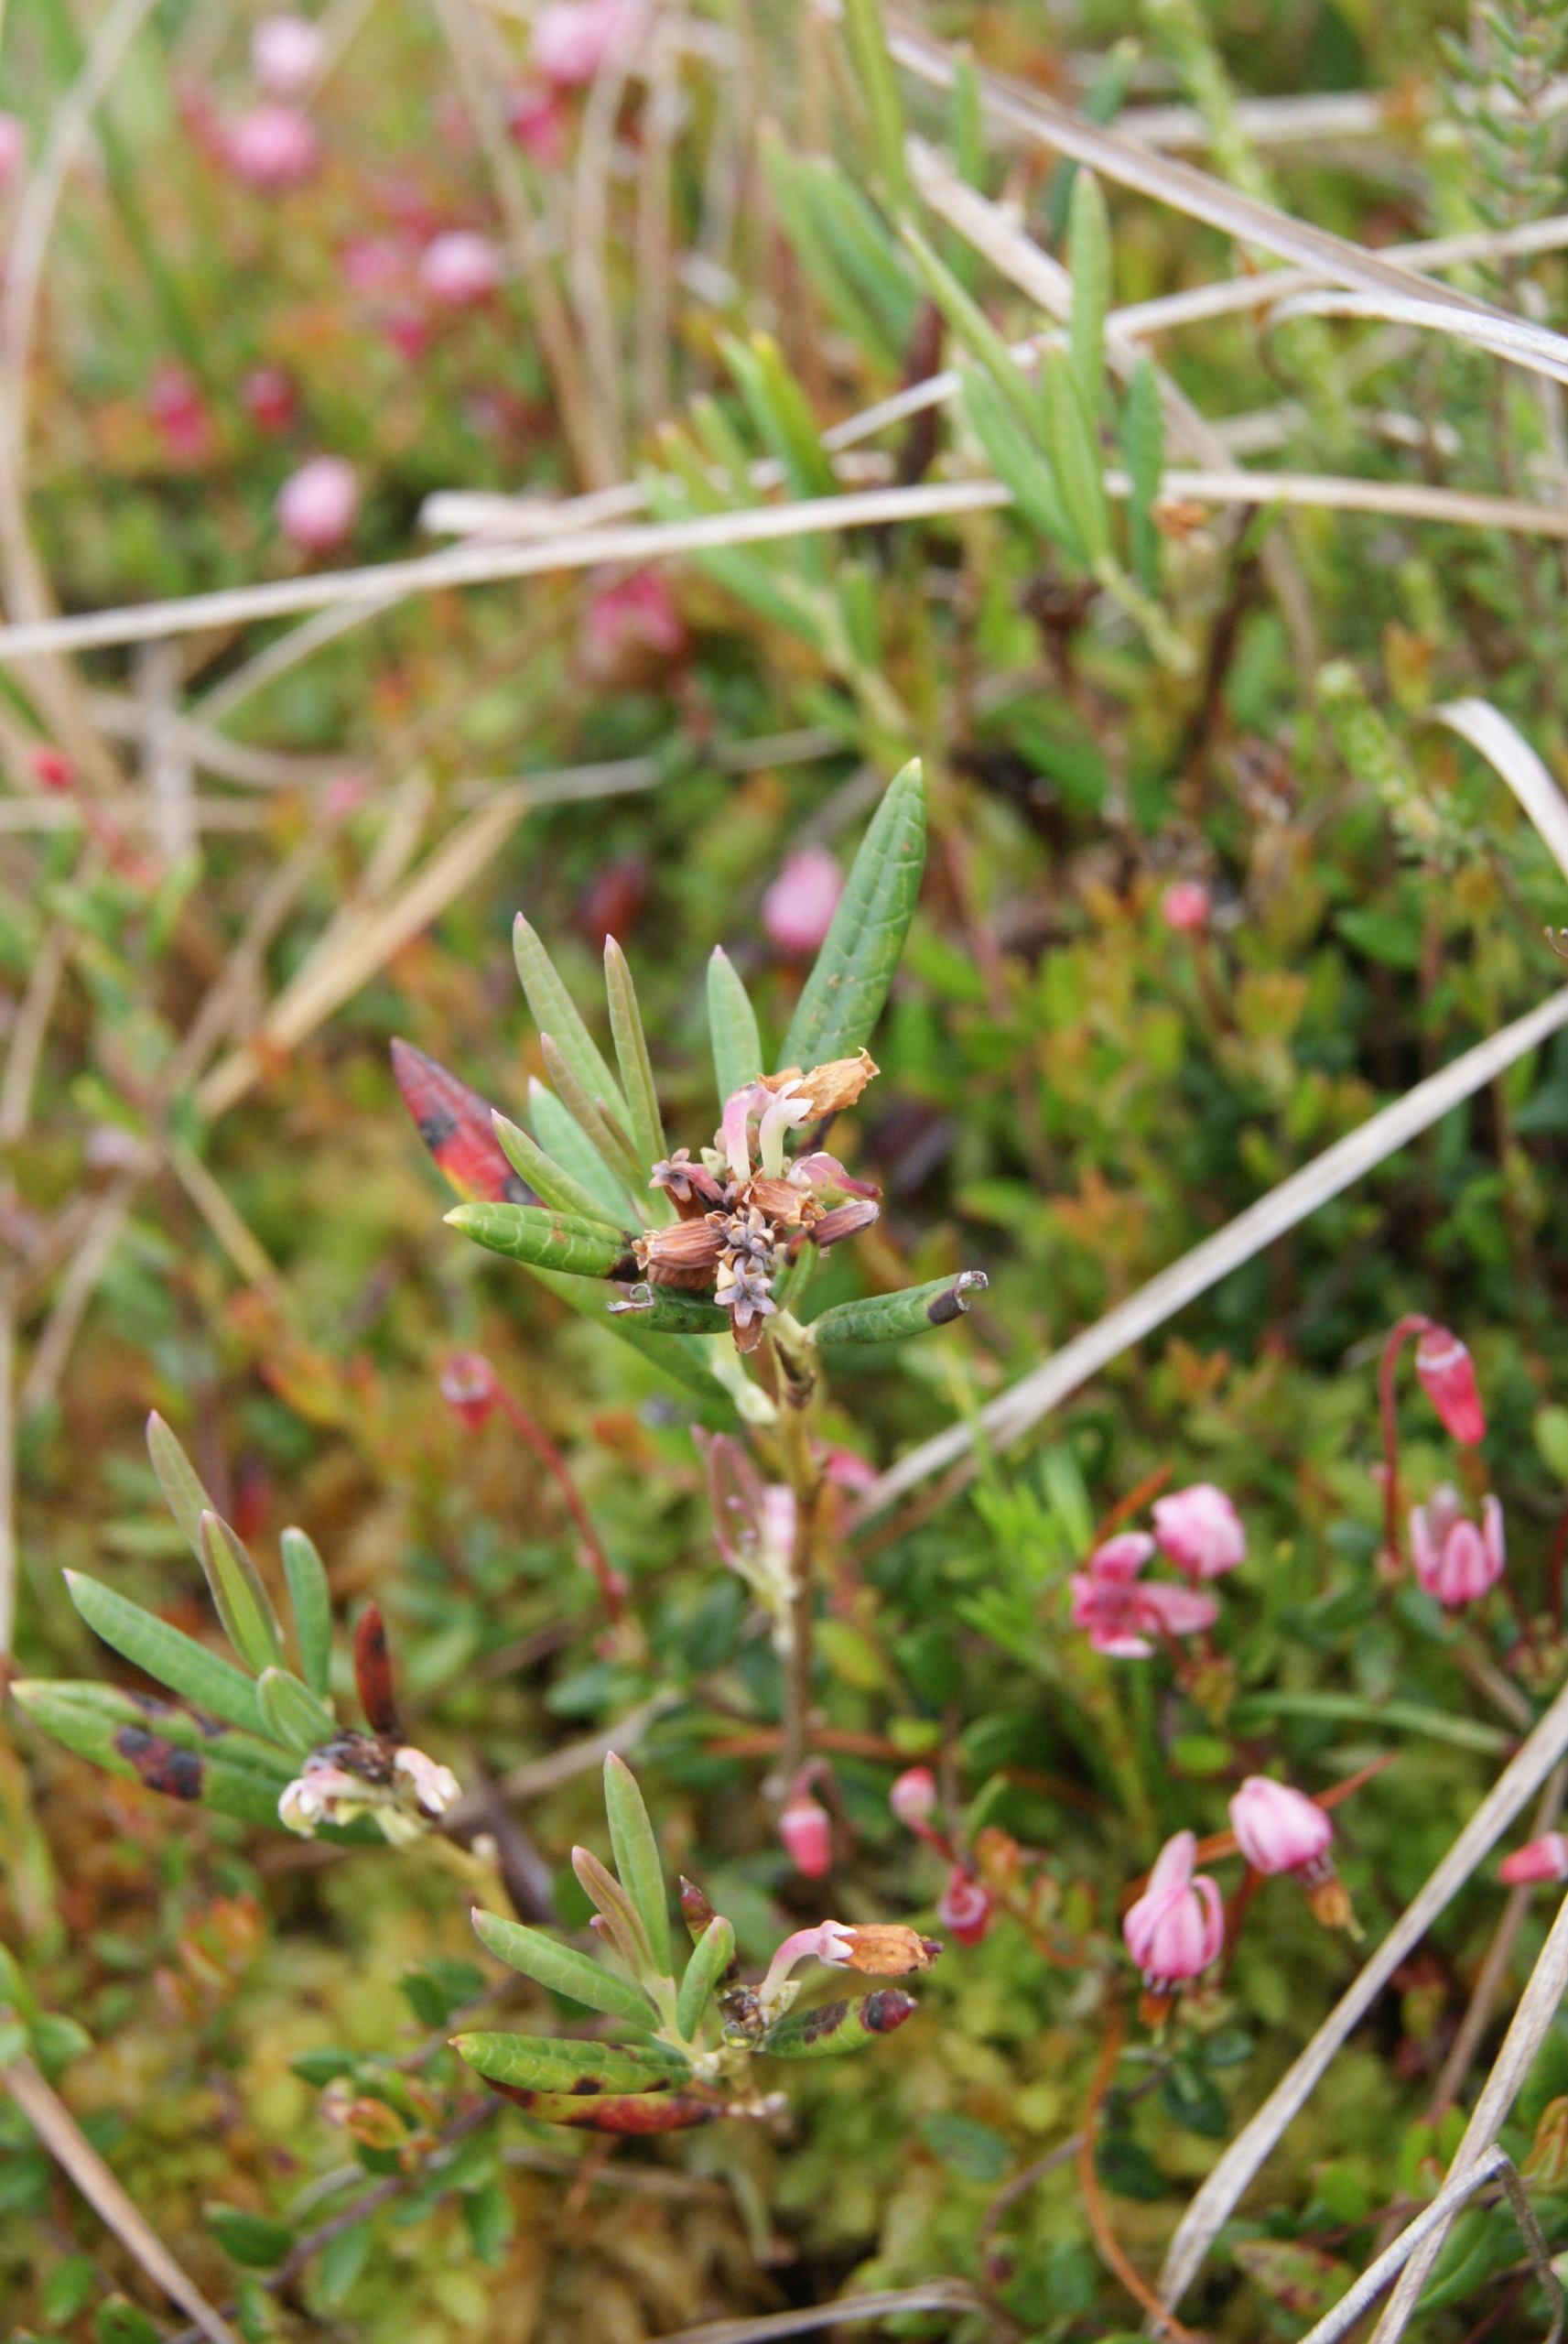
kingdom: Plantae
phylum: Tracheophyta
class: Magnoliopsida
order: Ericales
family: Ericaceae
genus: Andromeda
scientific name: Andromeda polifolia
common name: Rosmarinlyng
